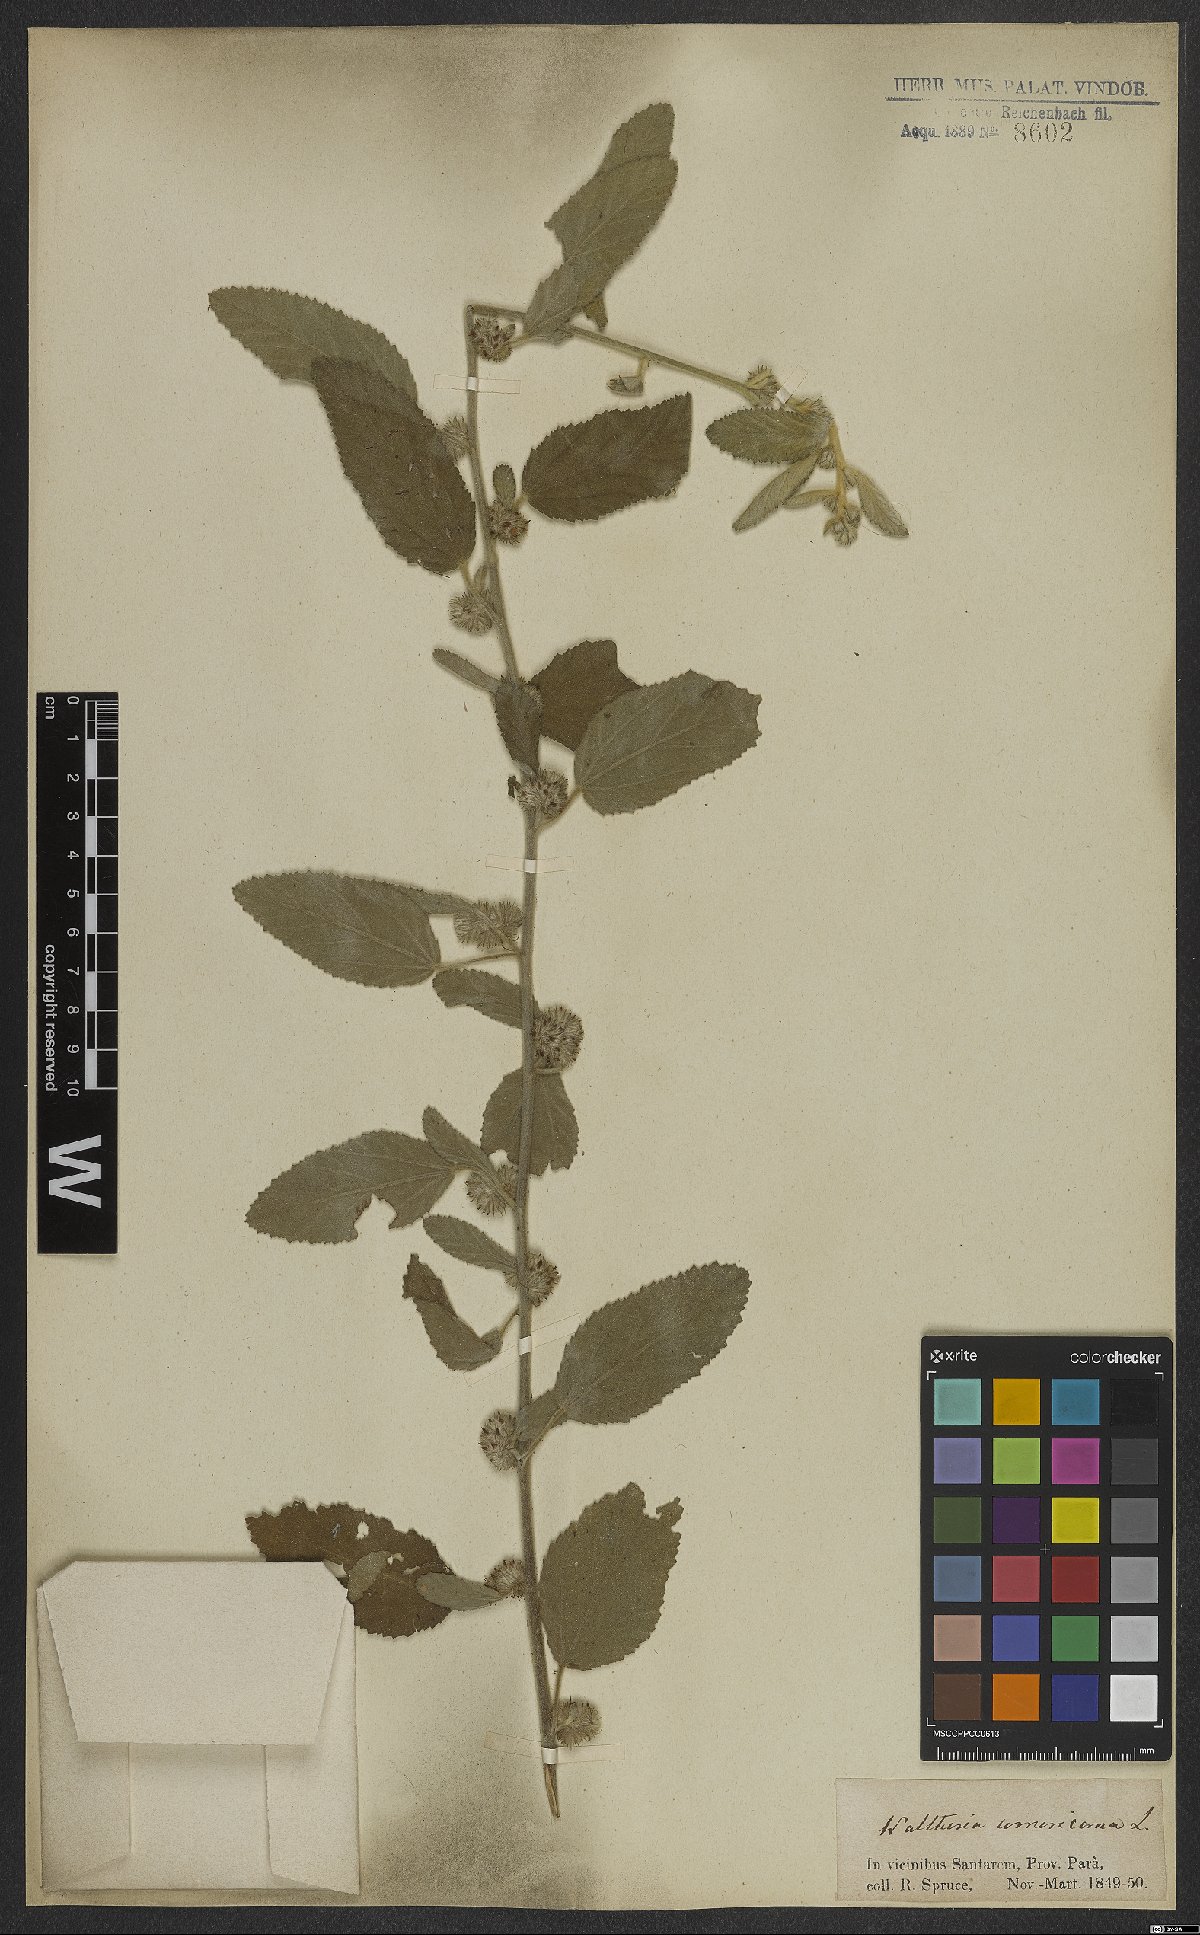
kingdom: Plantae
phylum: Tracheophyta
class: Magnoliopsida
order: Malvales
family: Malvaceae
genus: Waltheria
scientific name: Waltheria indica
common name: Leather-coat
